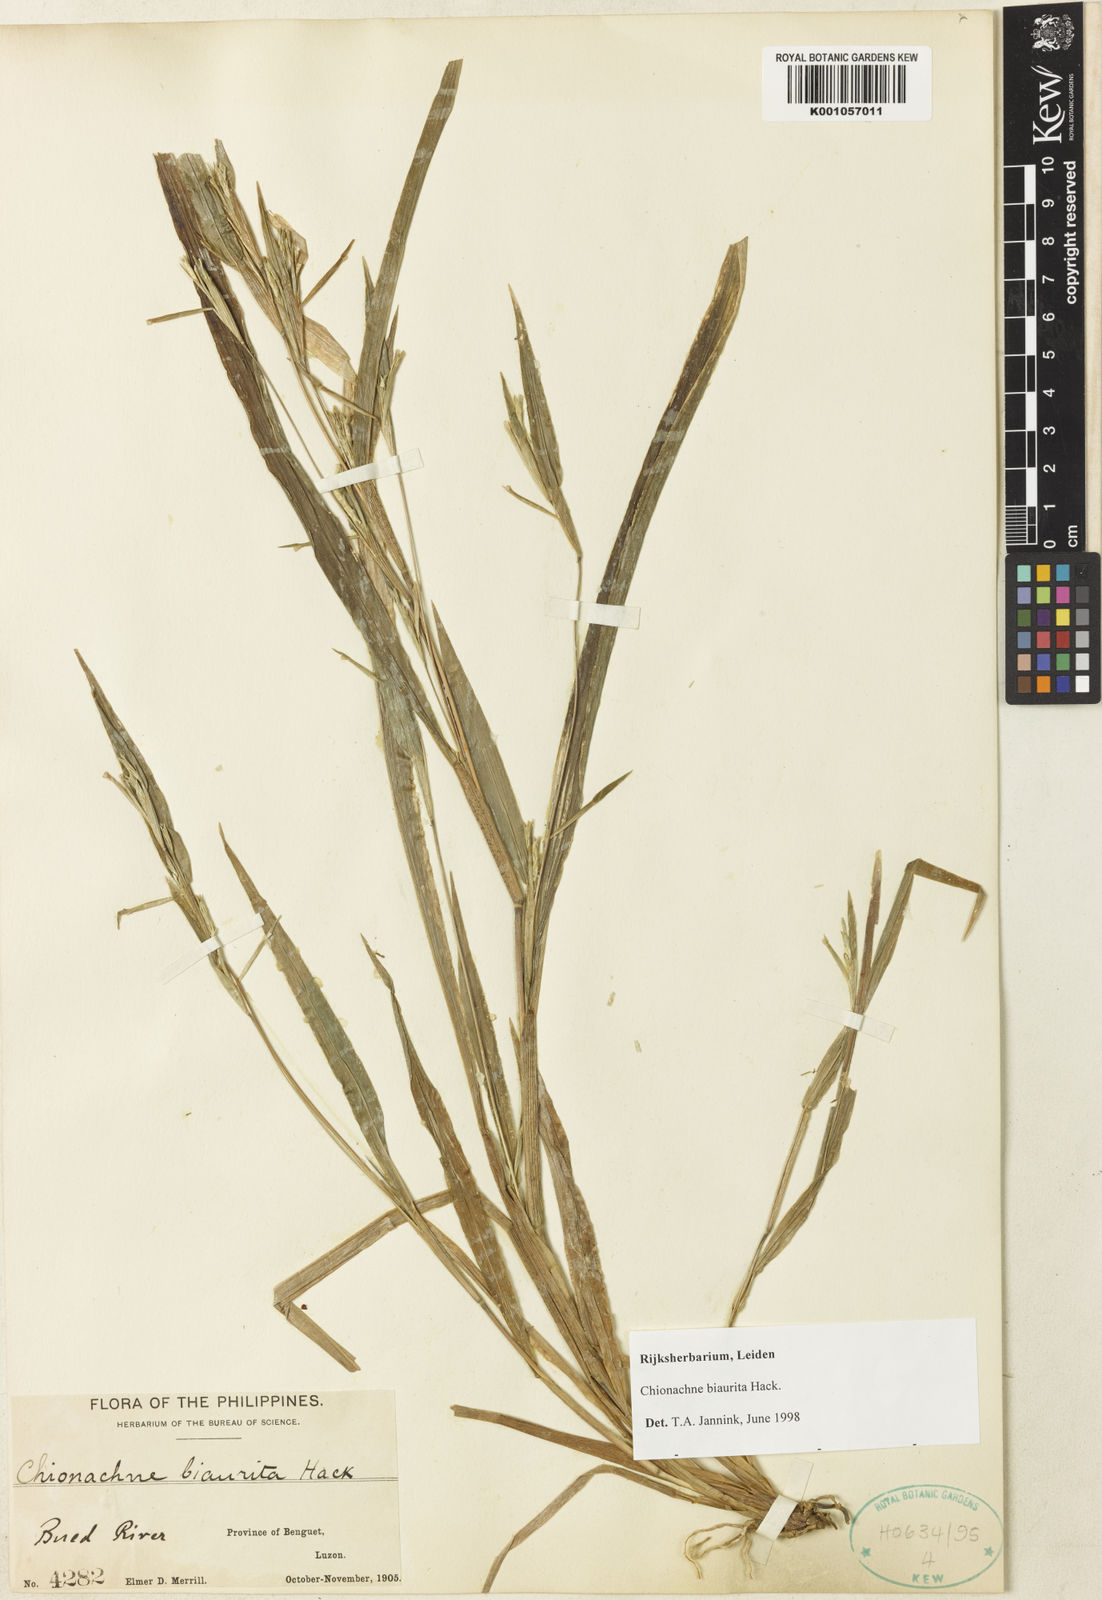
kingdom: Plantae
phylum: Tracheophyta
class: Liliopsida
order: Poales
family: Poaceae
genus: Polytoca
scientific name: Polytoca biaurita
